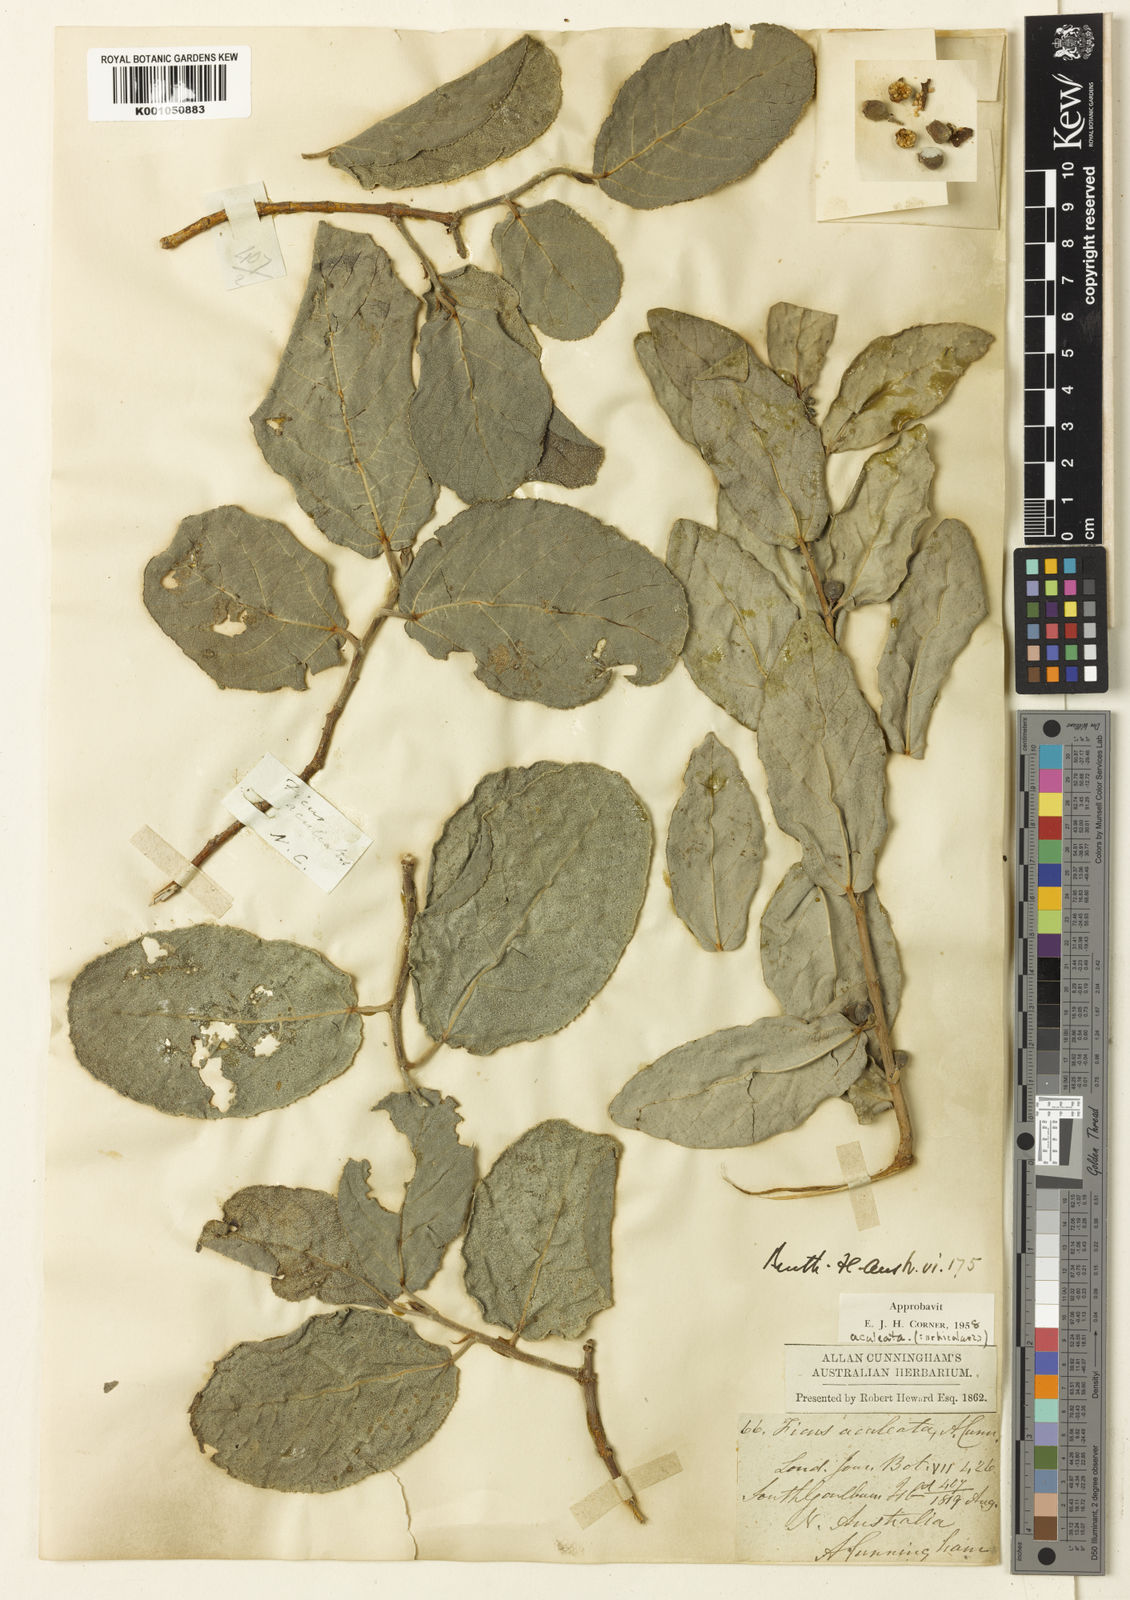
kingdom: Plantae
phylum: Tracheophyta
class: Magnoliopsida
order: Rosales
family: Moraceae
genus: Ficus
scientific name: Ficus opposita
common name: Figwood
